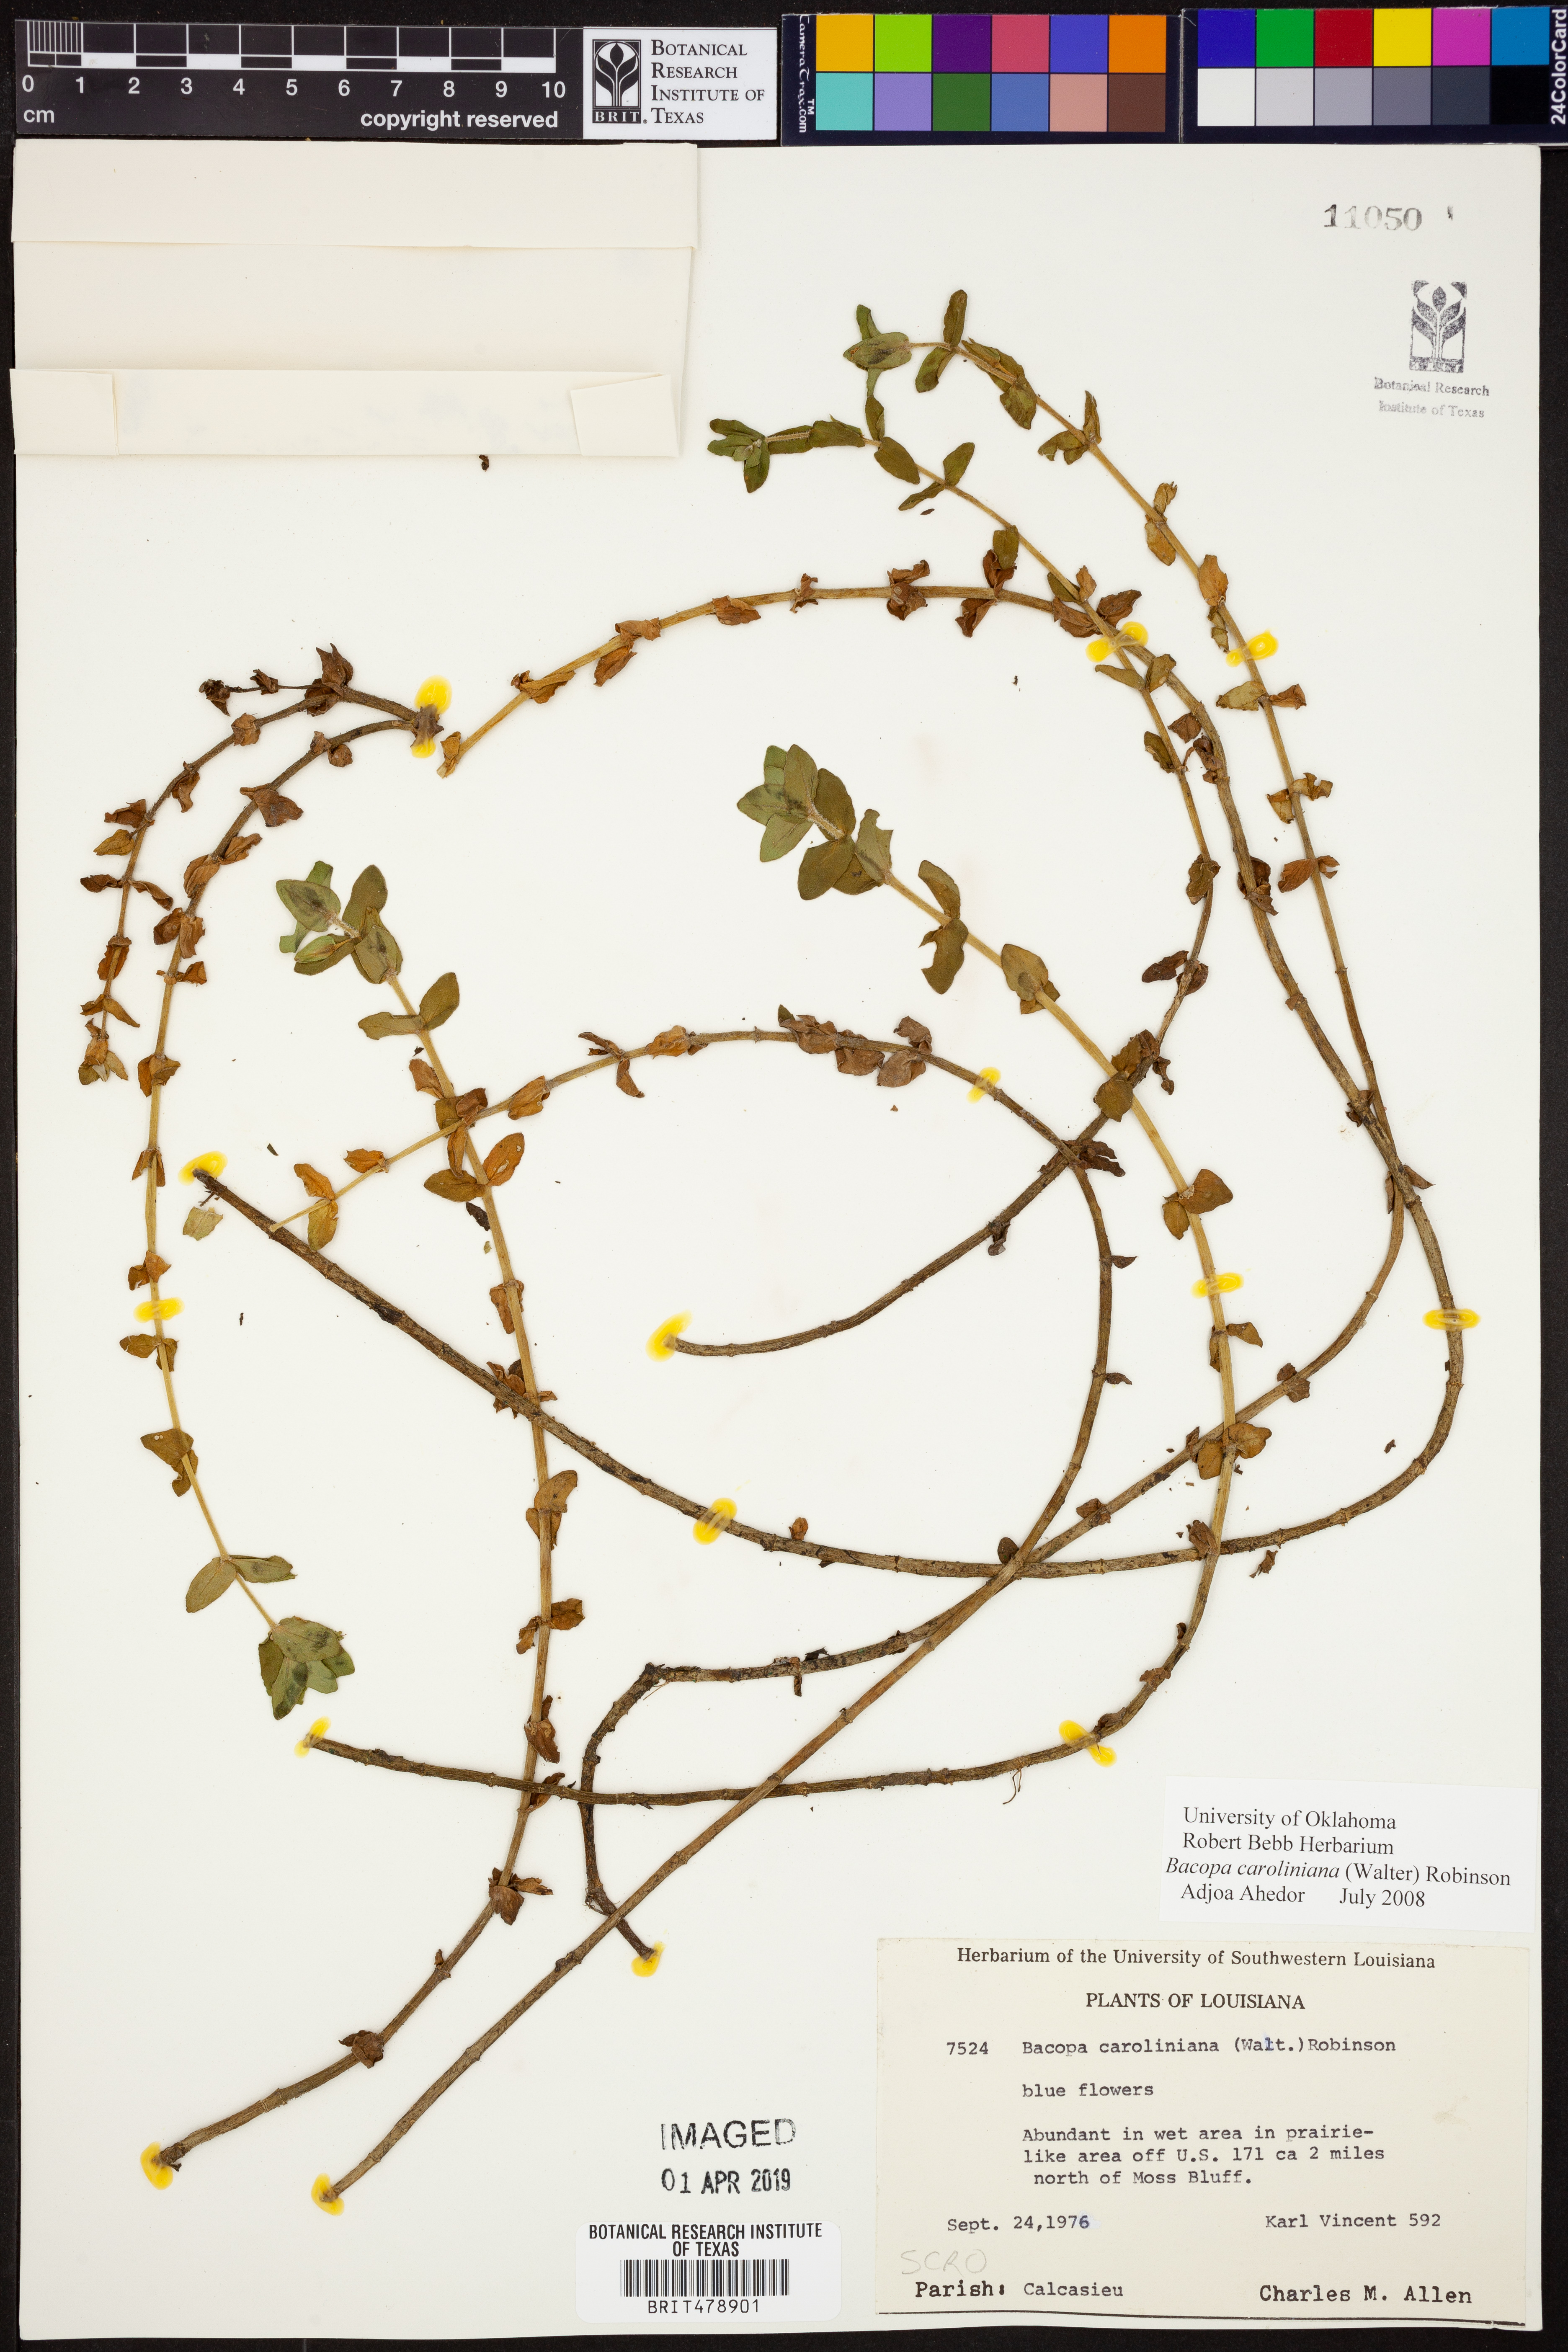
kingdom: Plantae
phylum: Tracheophyta
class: Magnoliopsida
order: Lamiales
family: Plantaginaceae
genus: Bacopa
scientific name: Bacopa caroliniana
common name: Lemon bacopa
